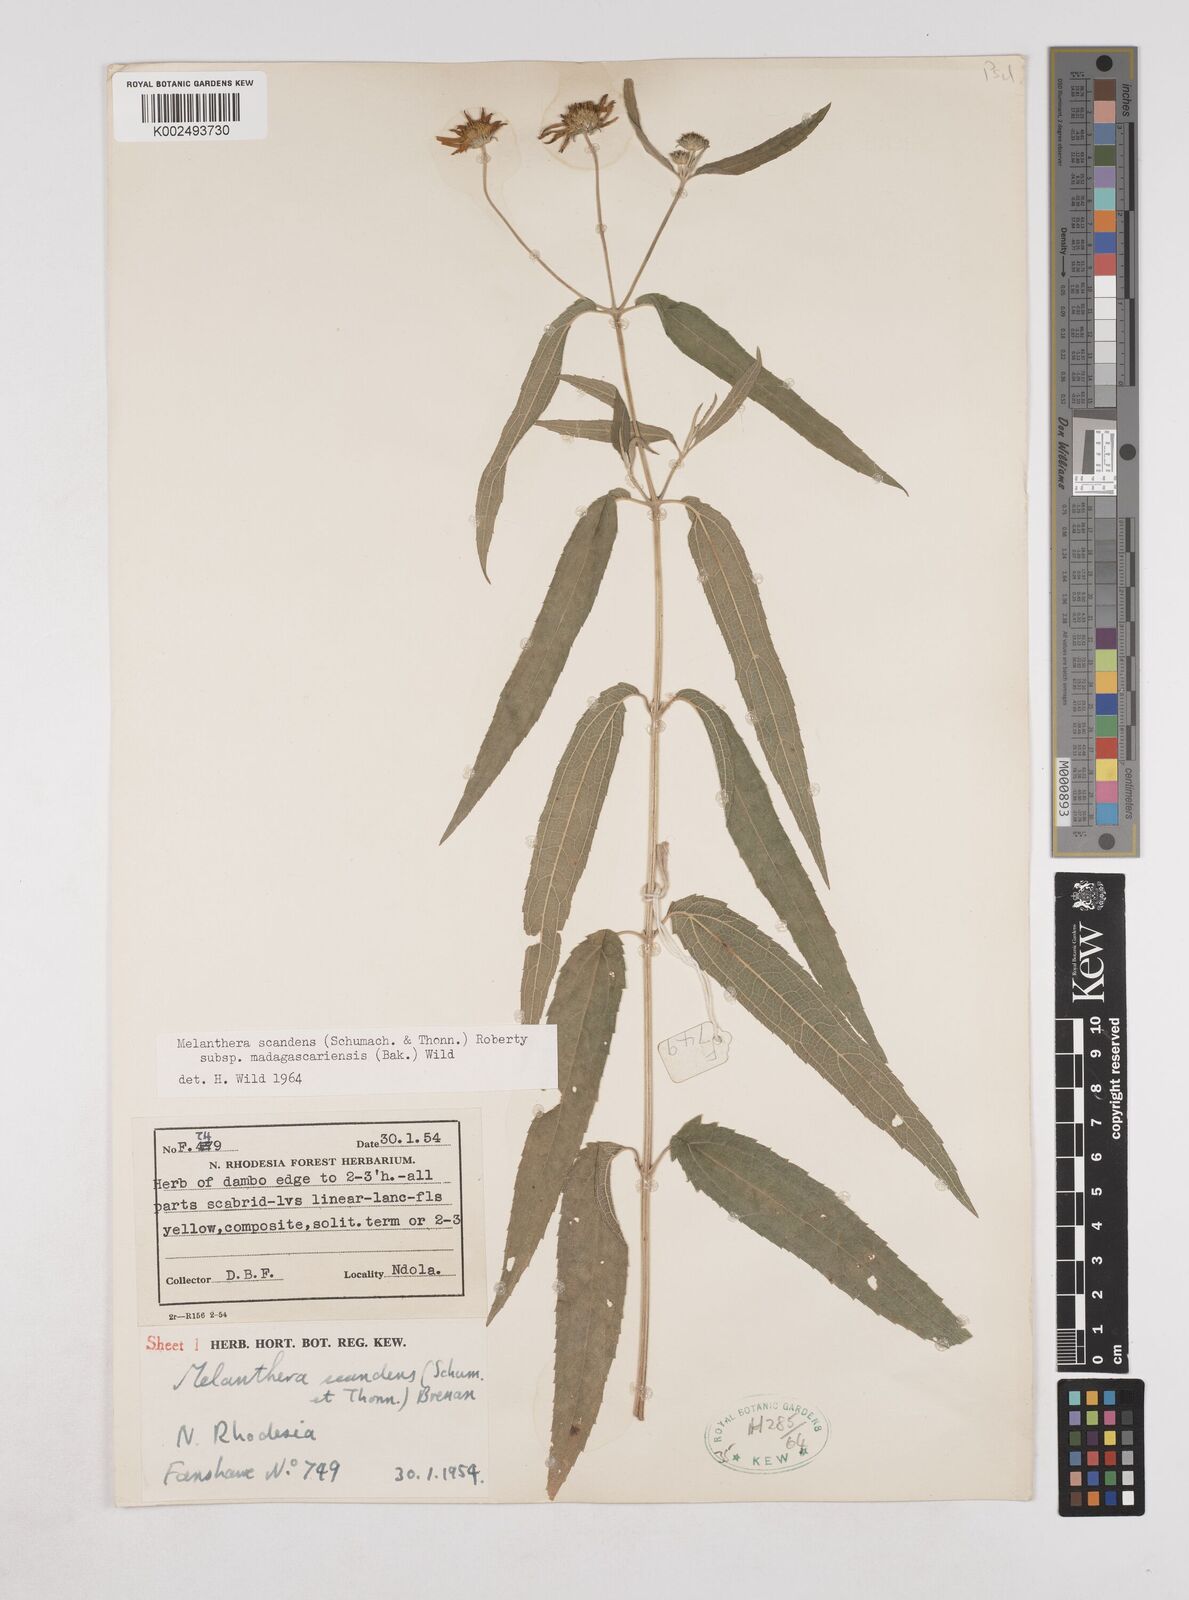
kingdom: Plantae
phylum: Tracheophyta
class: Magnoliopsida
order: Asterales
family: Asteraceae
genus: Lipotriche
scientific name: Lipotriche scandens
